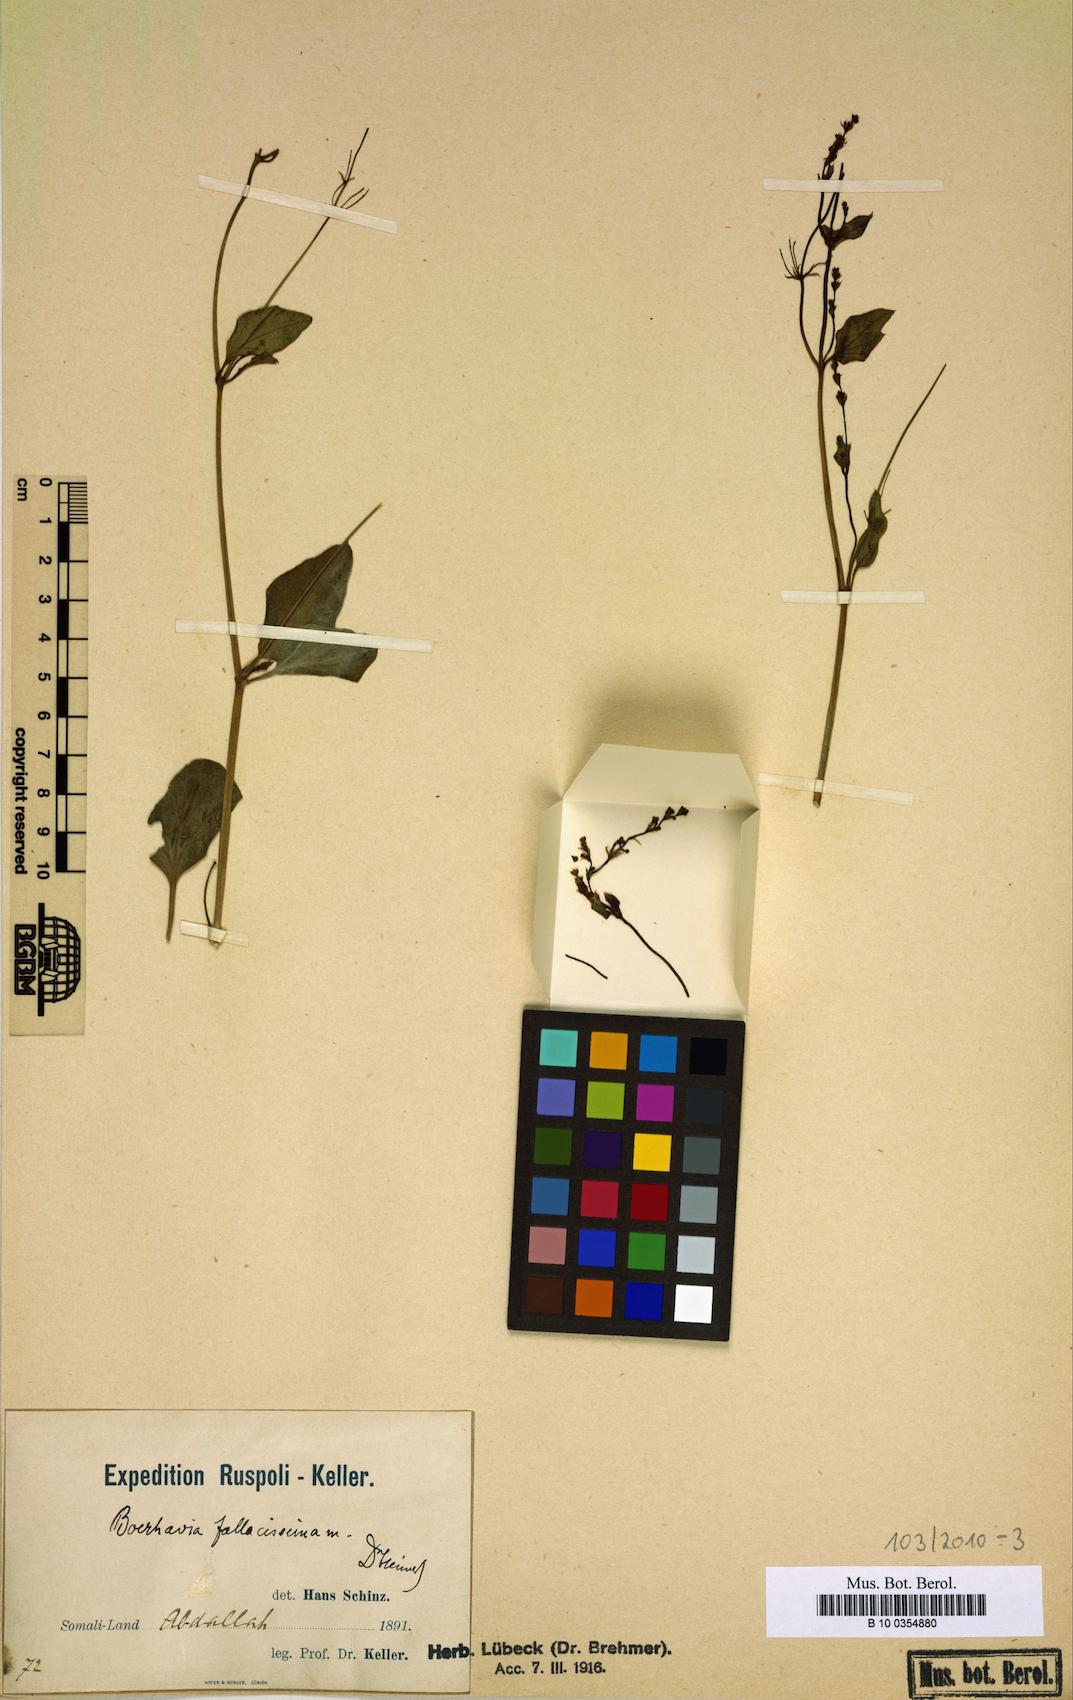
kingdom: Plantae
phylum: Tracheophyta
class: Magnoliopsida
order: Caryophyllales
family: Nyctaginaceae
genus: Commicarpus
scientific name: Commicarpus fallacissimus
